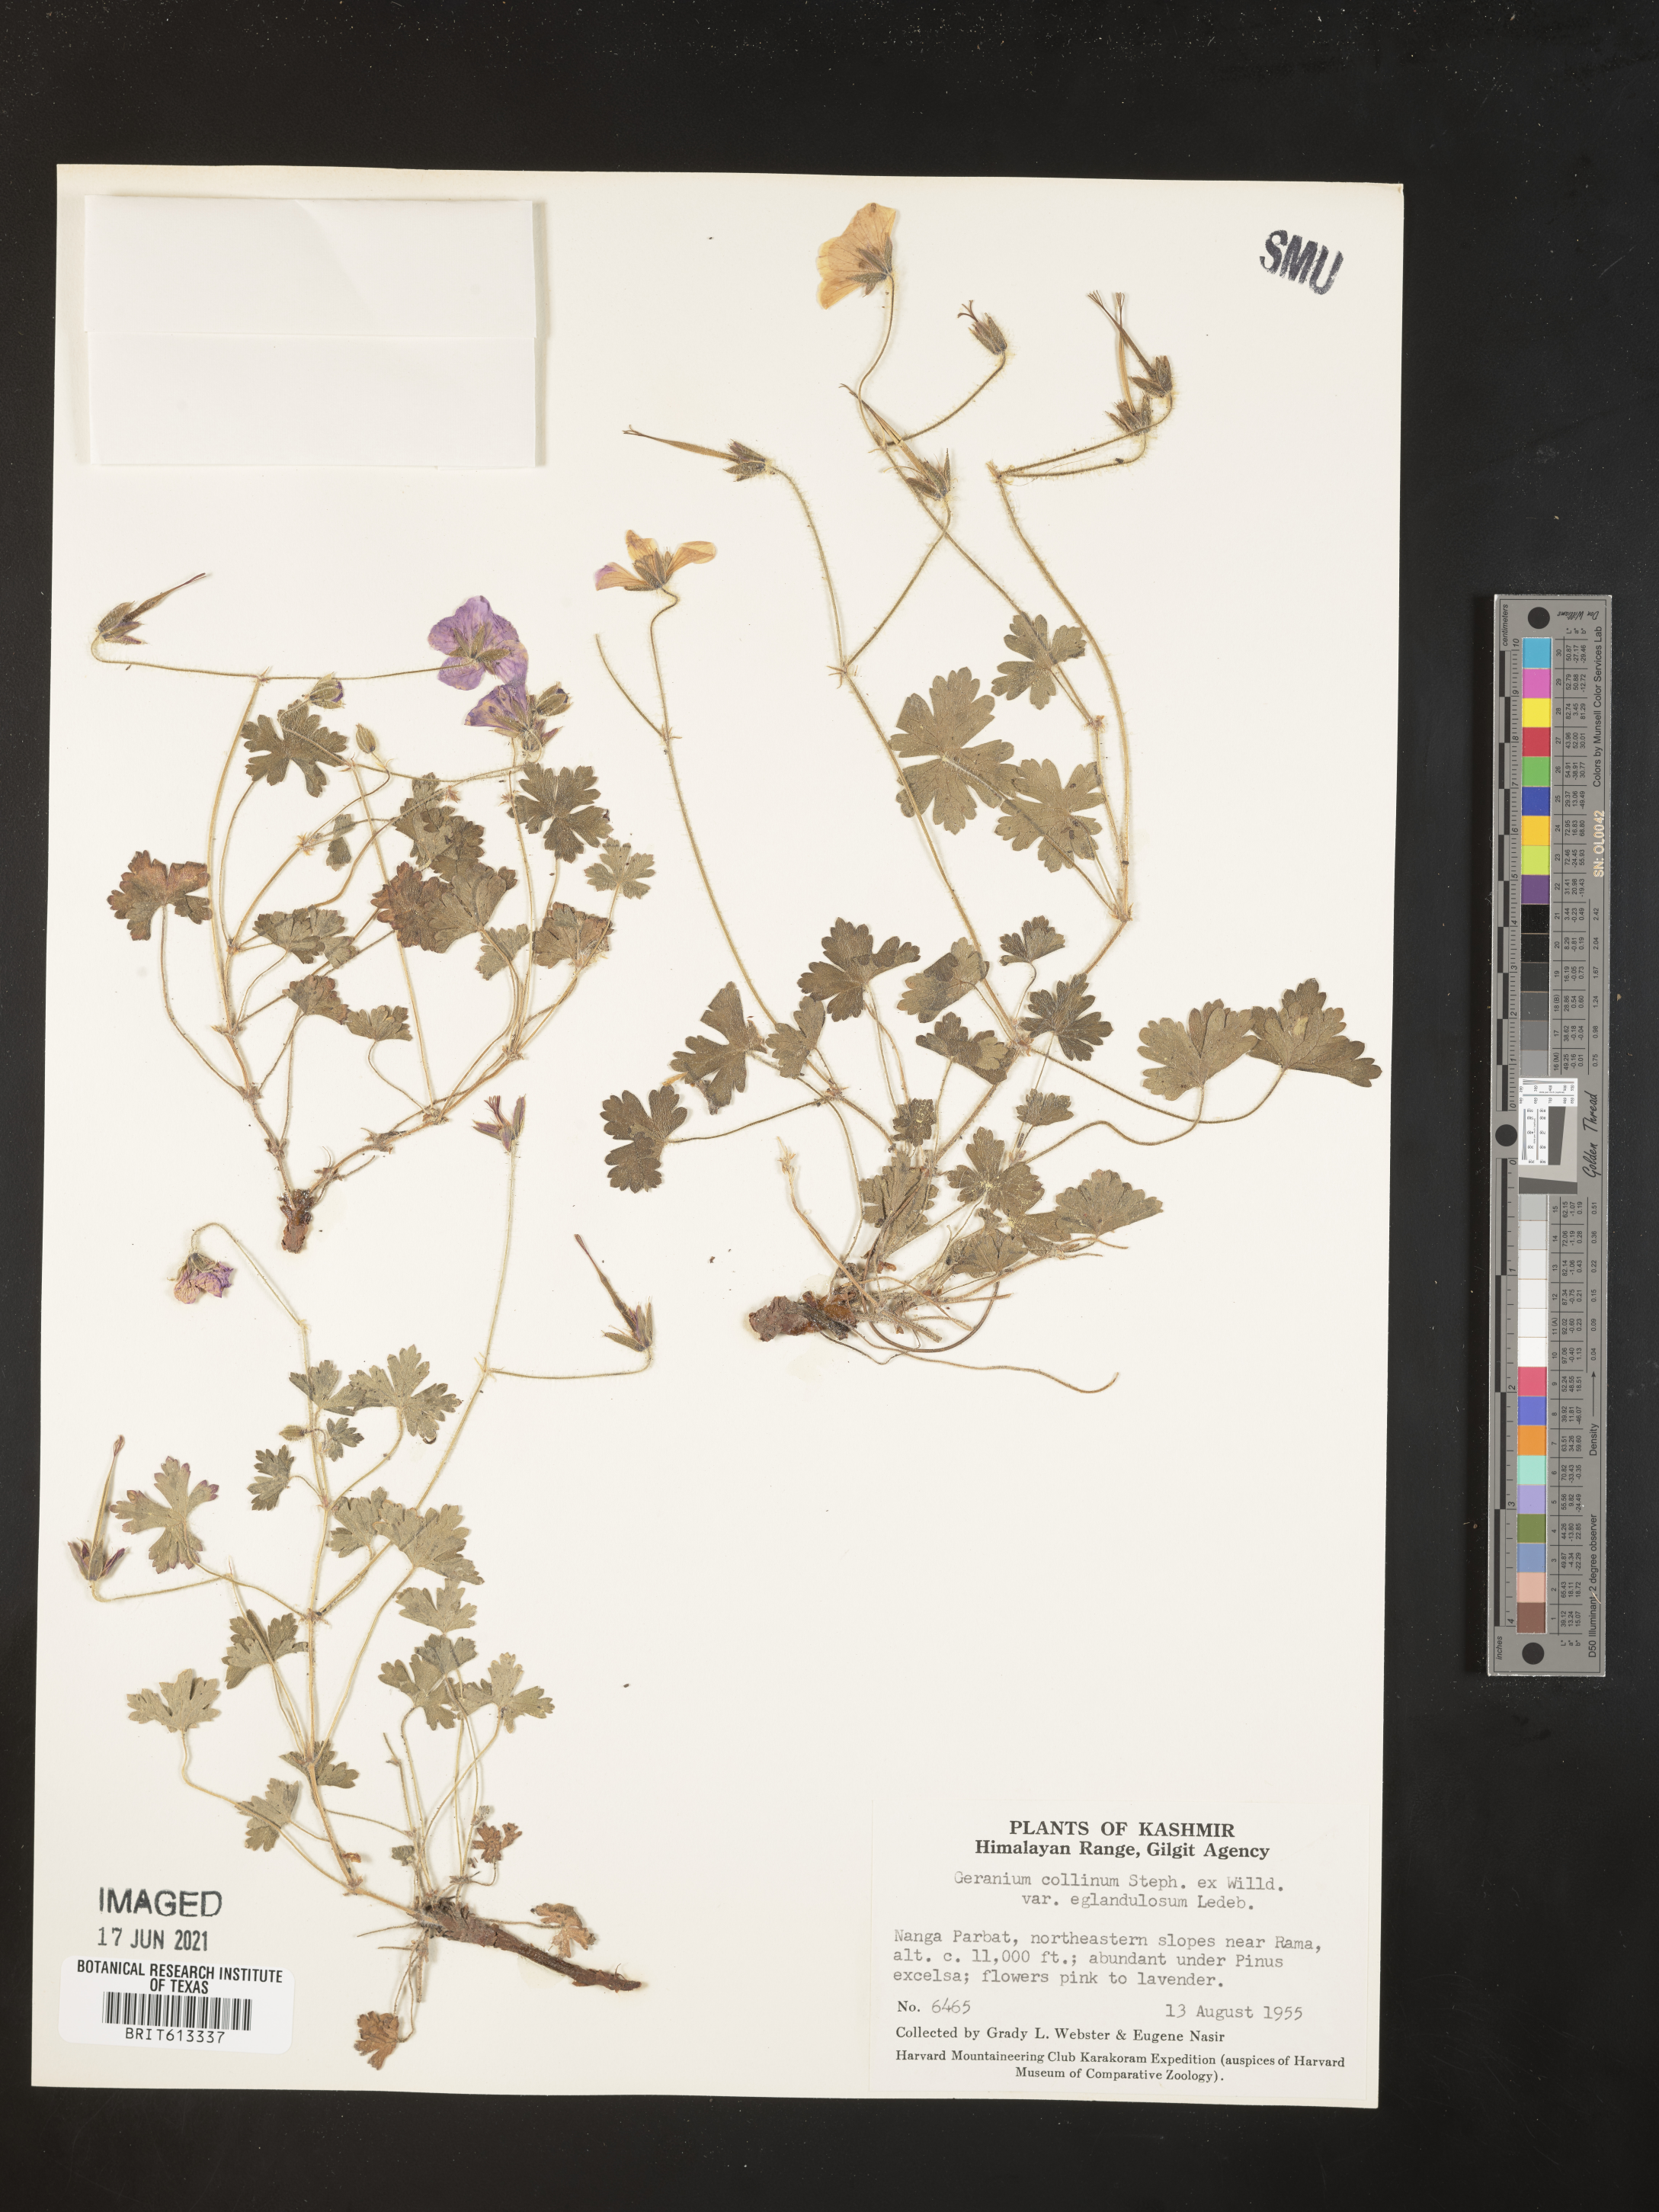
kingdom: Plantae
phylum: Tracheophyta
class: Magnoliopsida
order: Geraniales
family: Geraniaceae
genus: Geranium
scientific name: Geranium collinum
